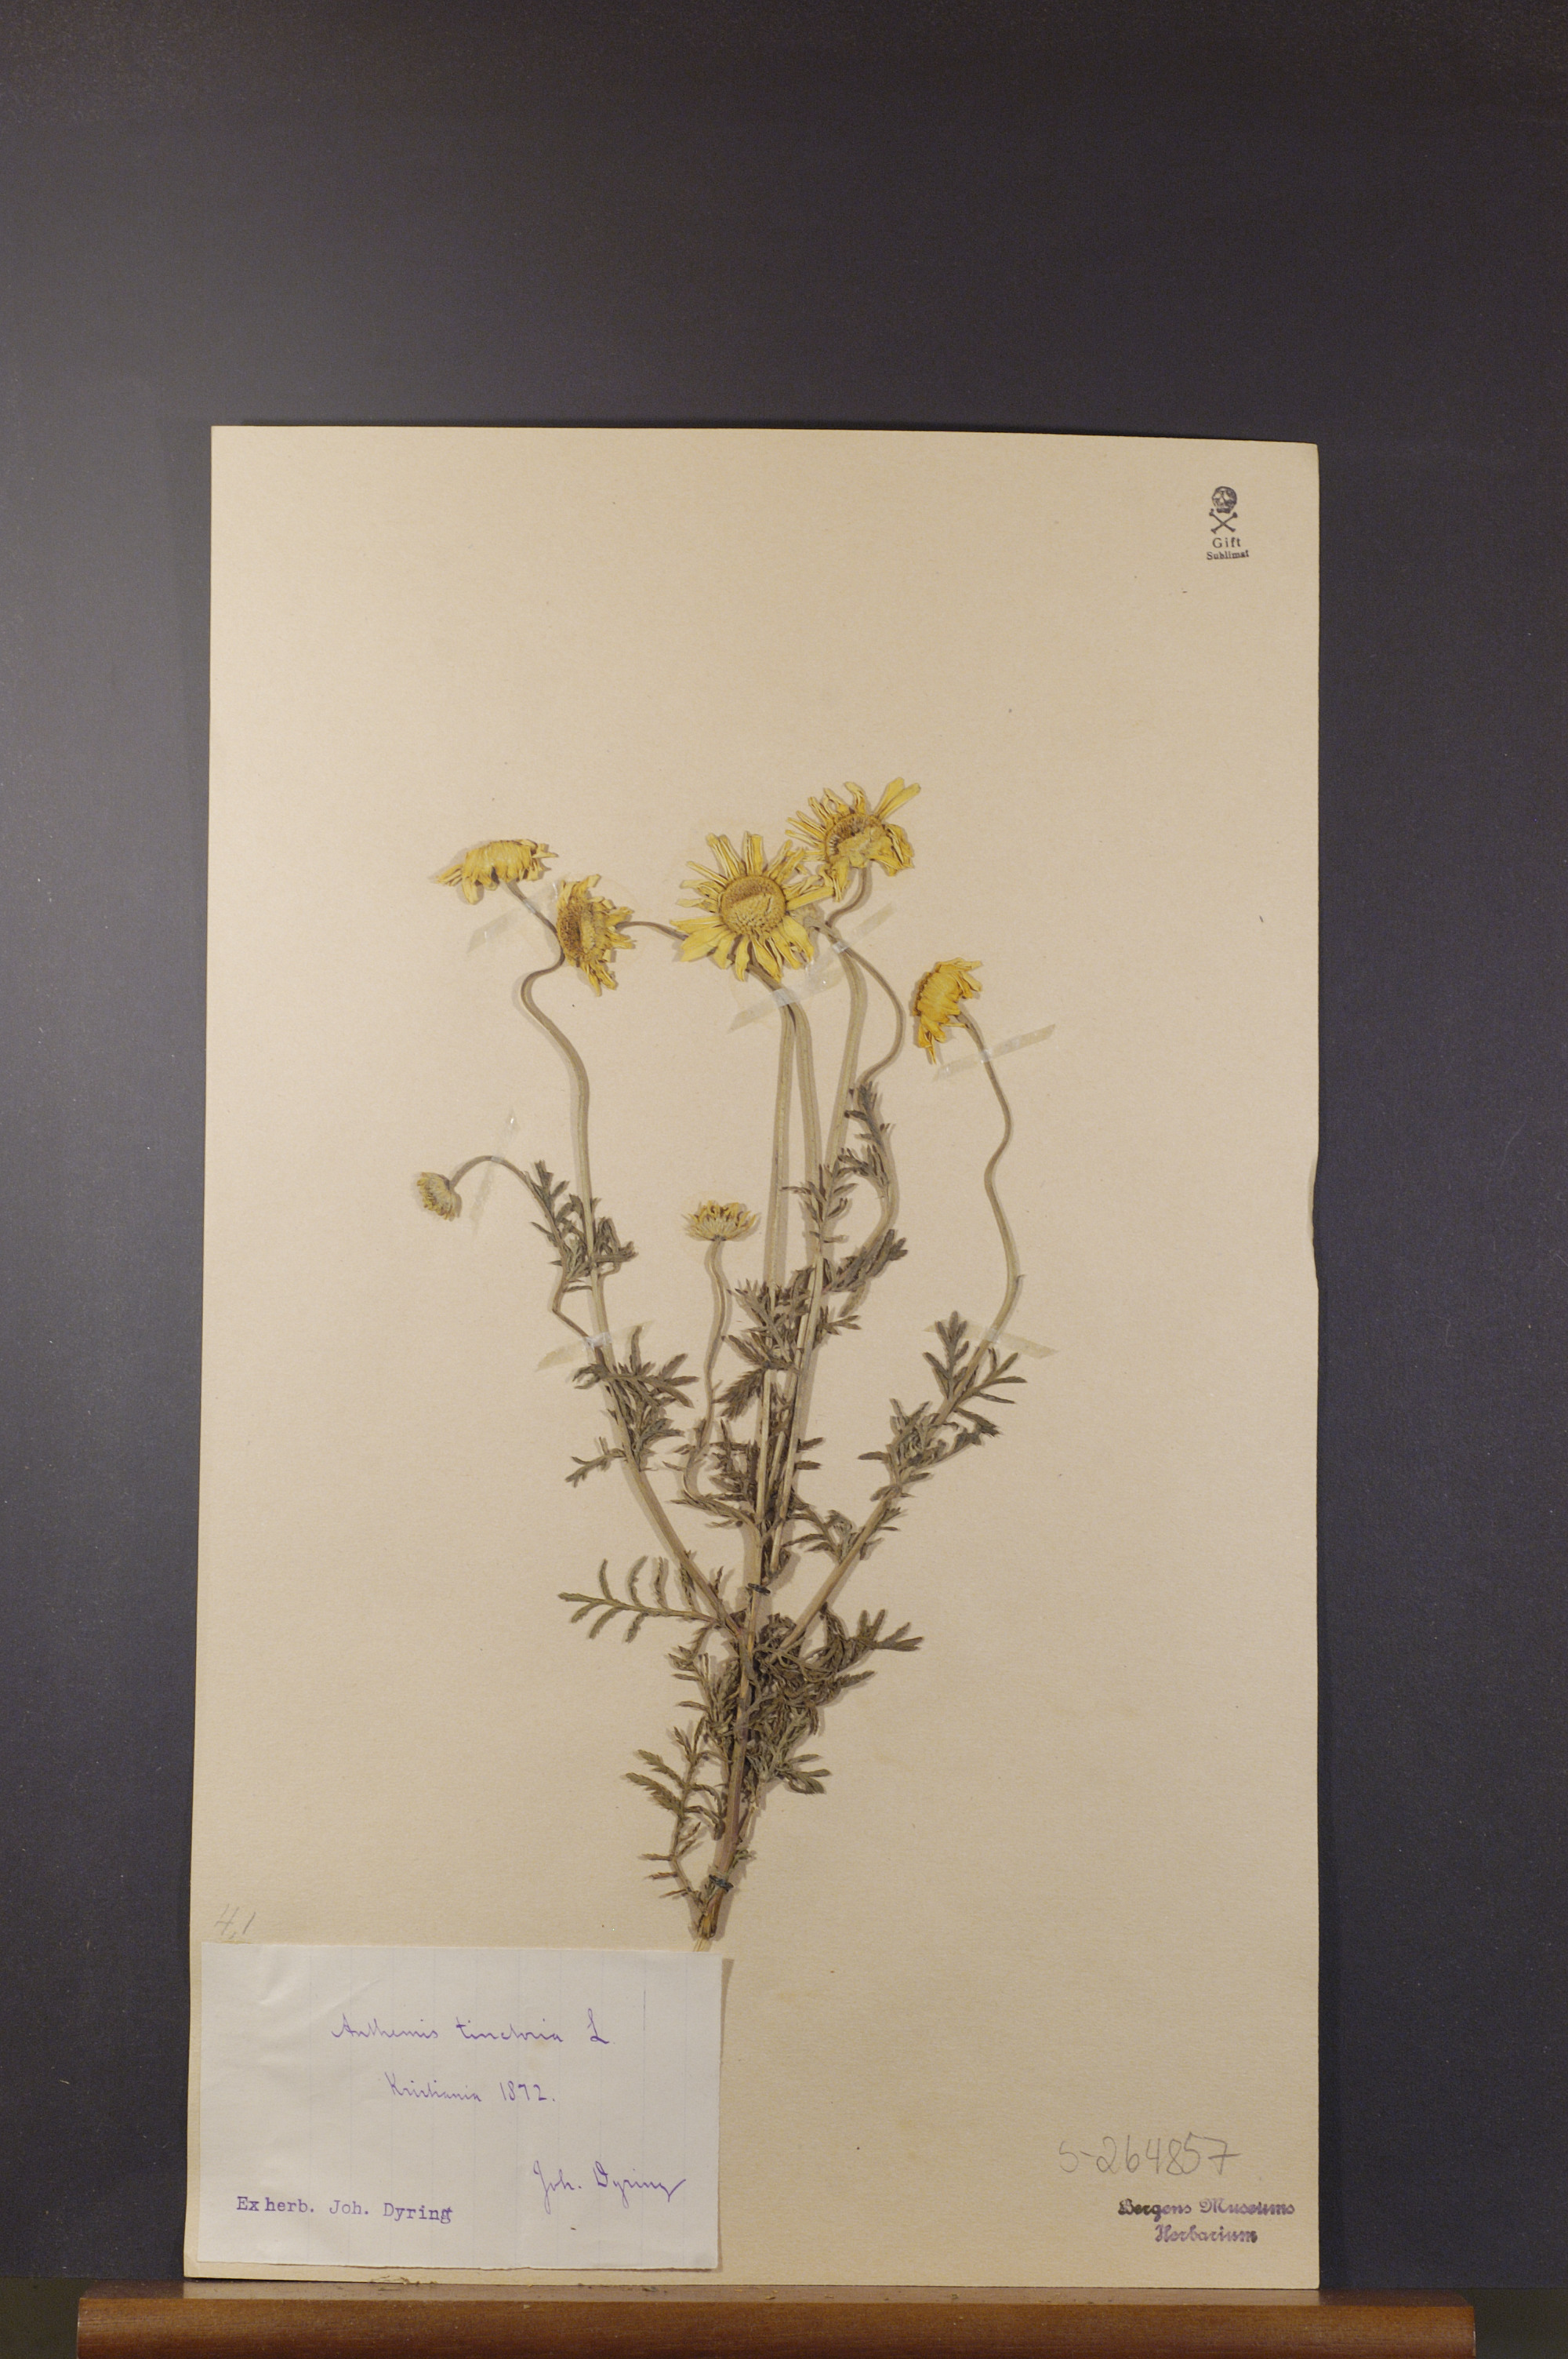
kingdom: Plantae
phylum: Tracheophyta
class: Magnoliopsida
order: Asterales
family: Asteraceae
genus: Cota
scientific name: Cota tinctoria
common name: Golden chamomile
